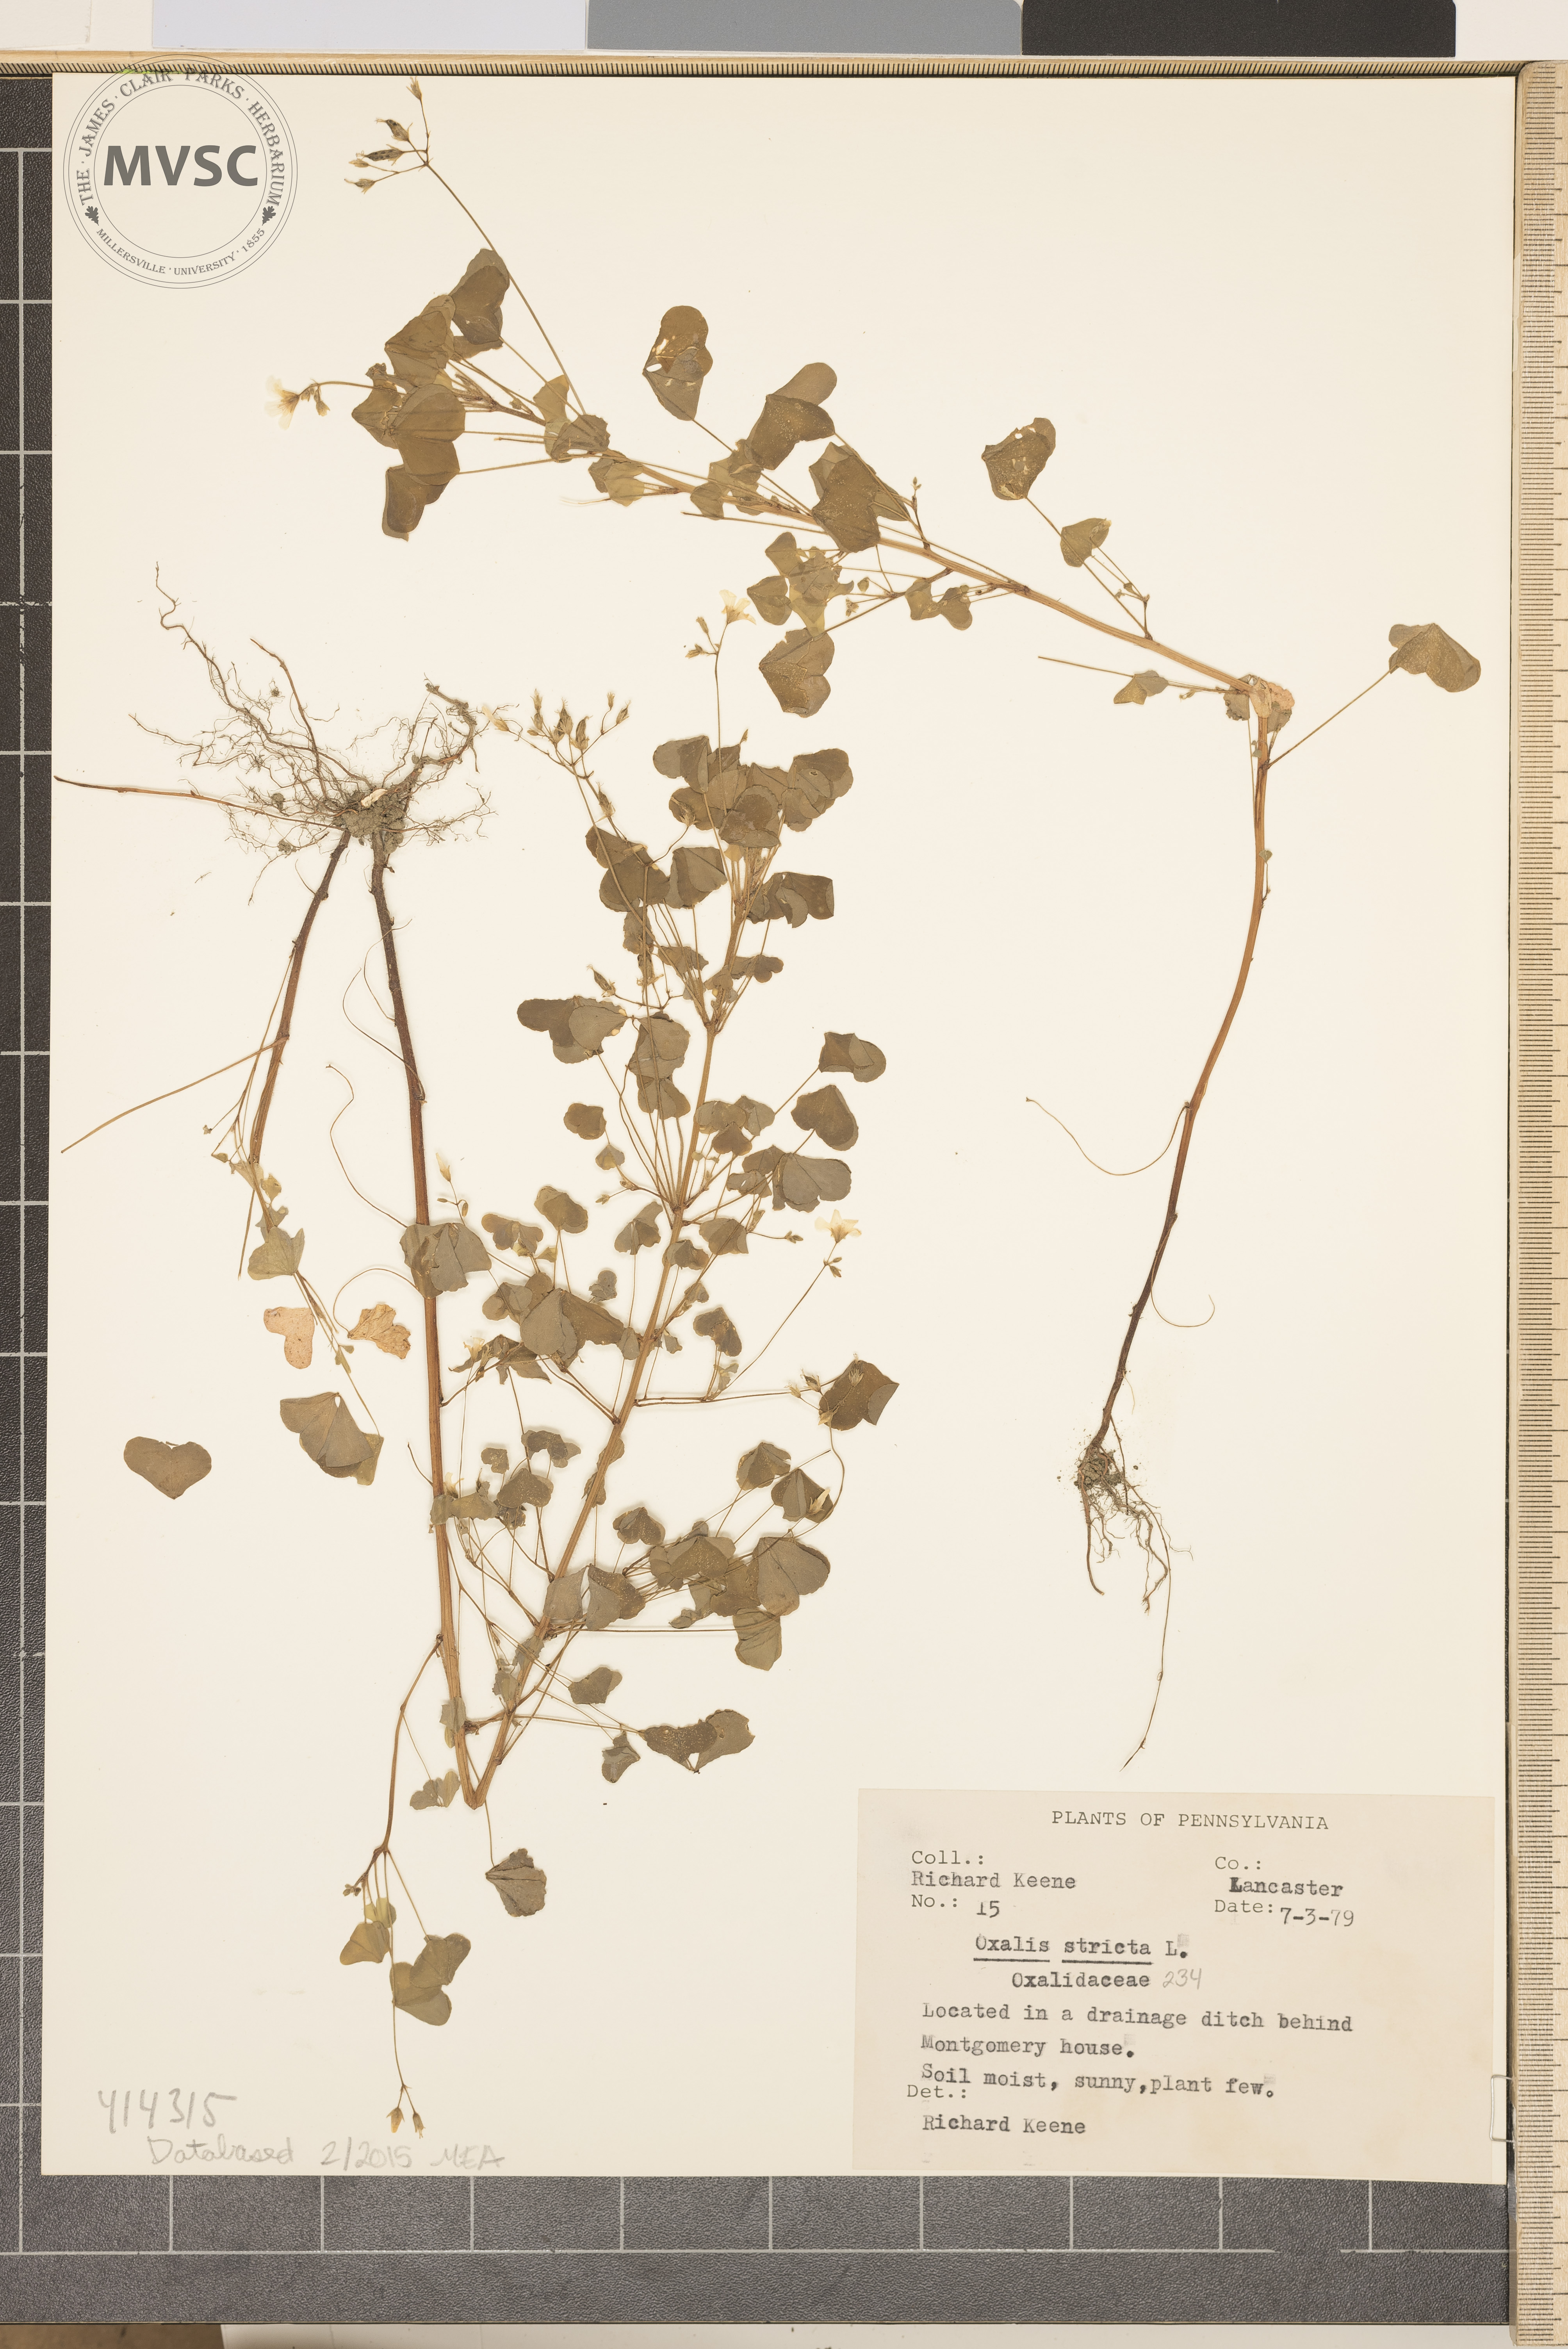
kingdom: Plantae
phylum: Tracheophyta
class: Magnoliopsida
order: Oxalidales
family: Oxalidaceae
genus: Oxalis
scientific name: Oxalis stricta
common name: common yellow woodsorrel
